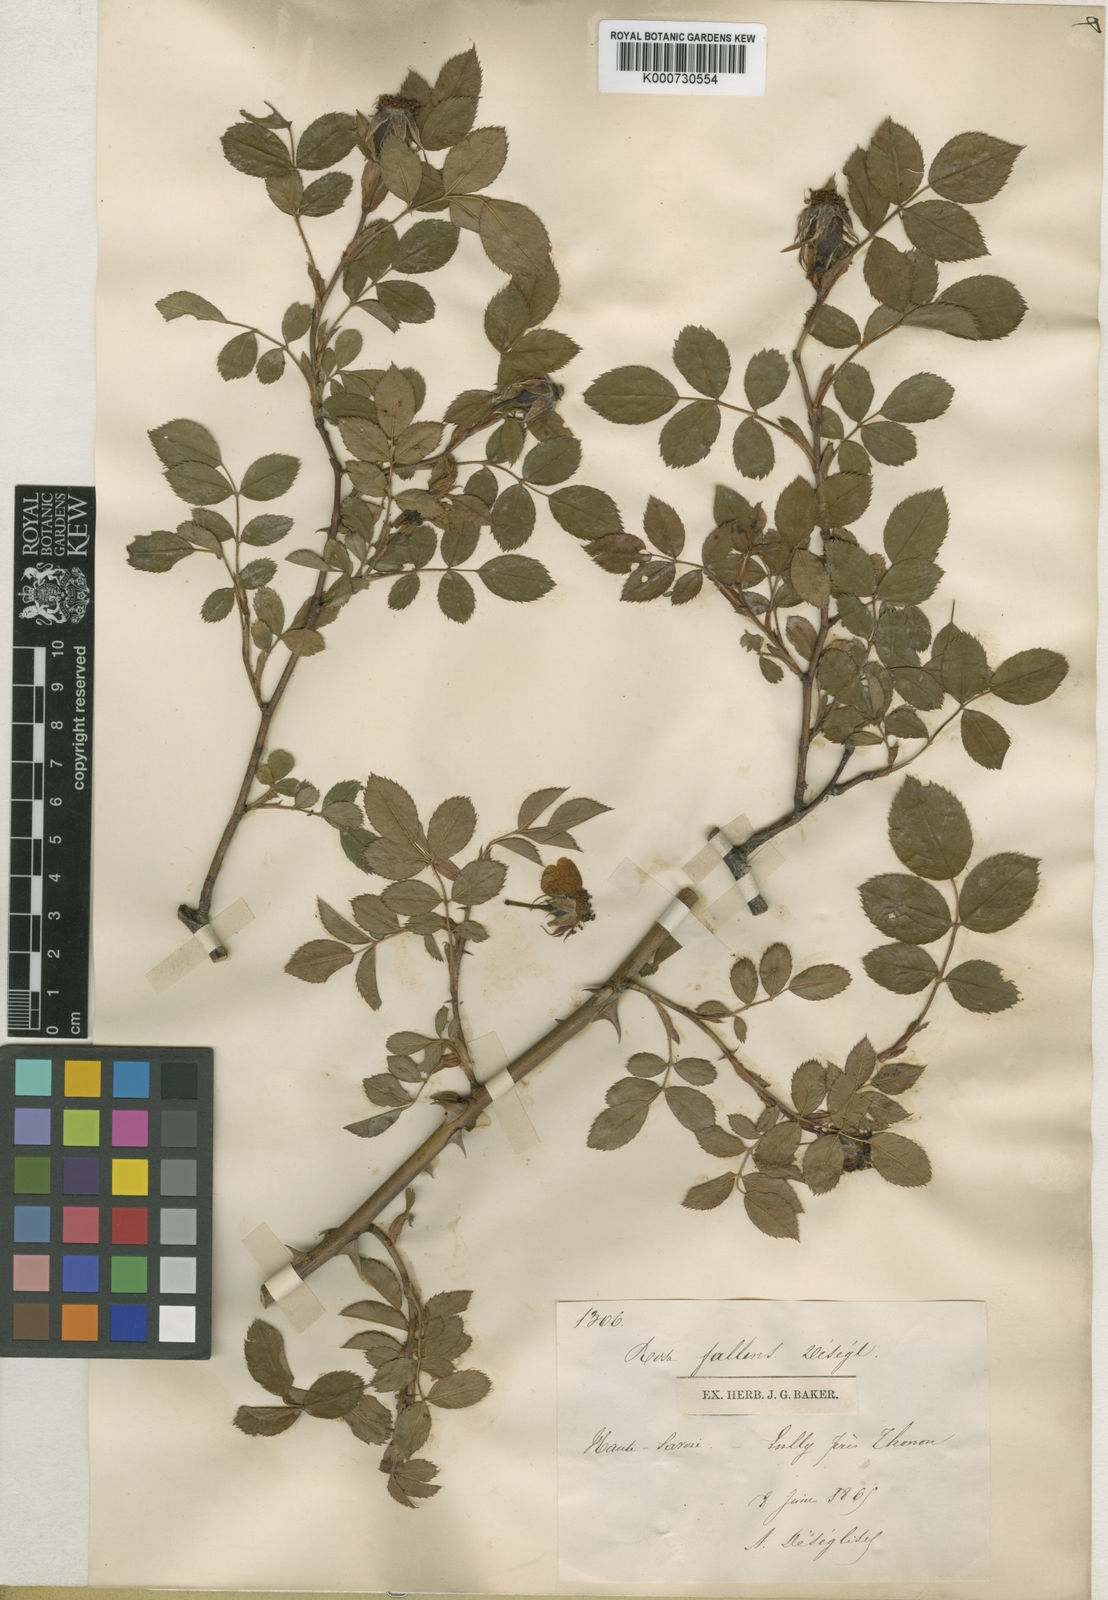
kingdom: Plantae
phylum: Tracheophyta
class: Magnoliopsida
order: Rosales
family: Rosaceae
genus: Rosa
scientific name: Rosa
